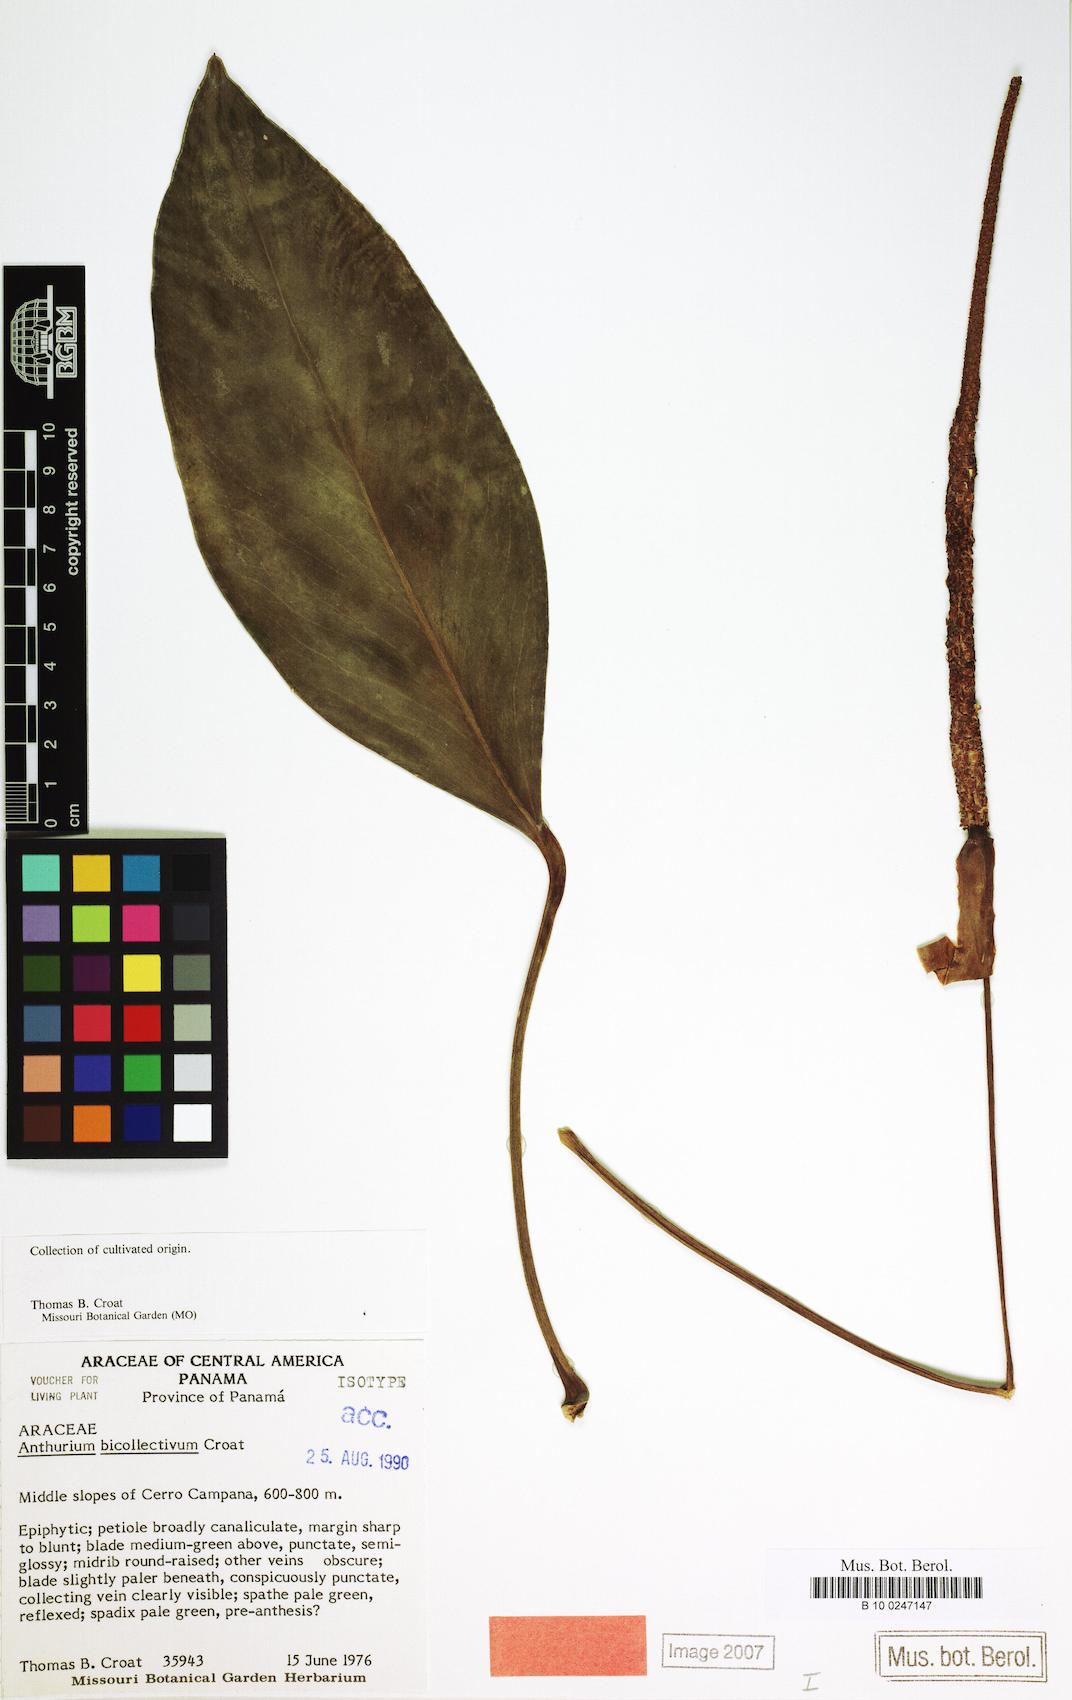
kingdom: Plantae
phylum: Tracheophyta
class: Liliopsida
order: Alismatales
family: Araceae
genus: Anthurium
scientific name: Anthurium durandii
